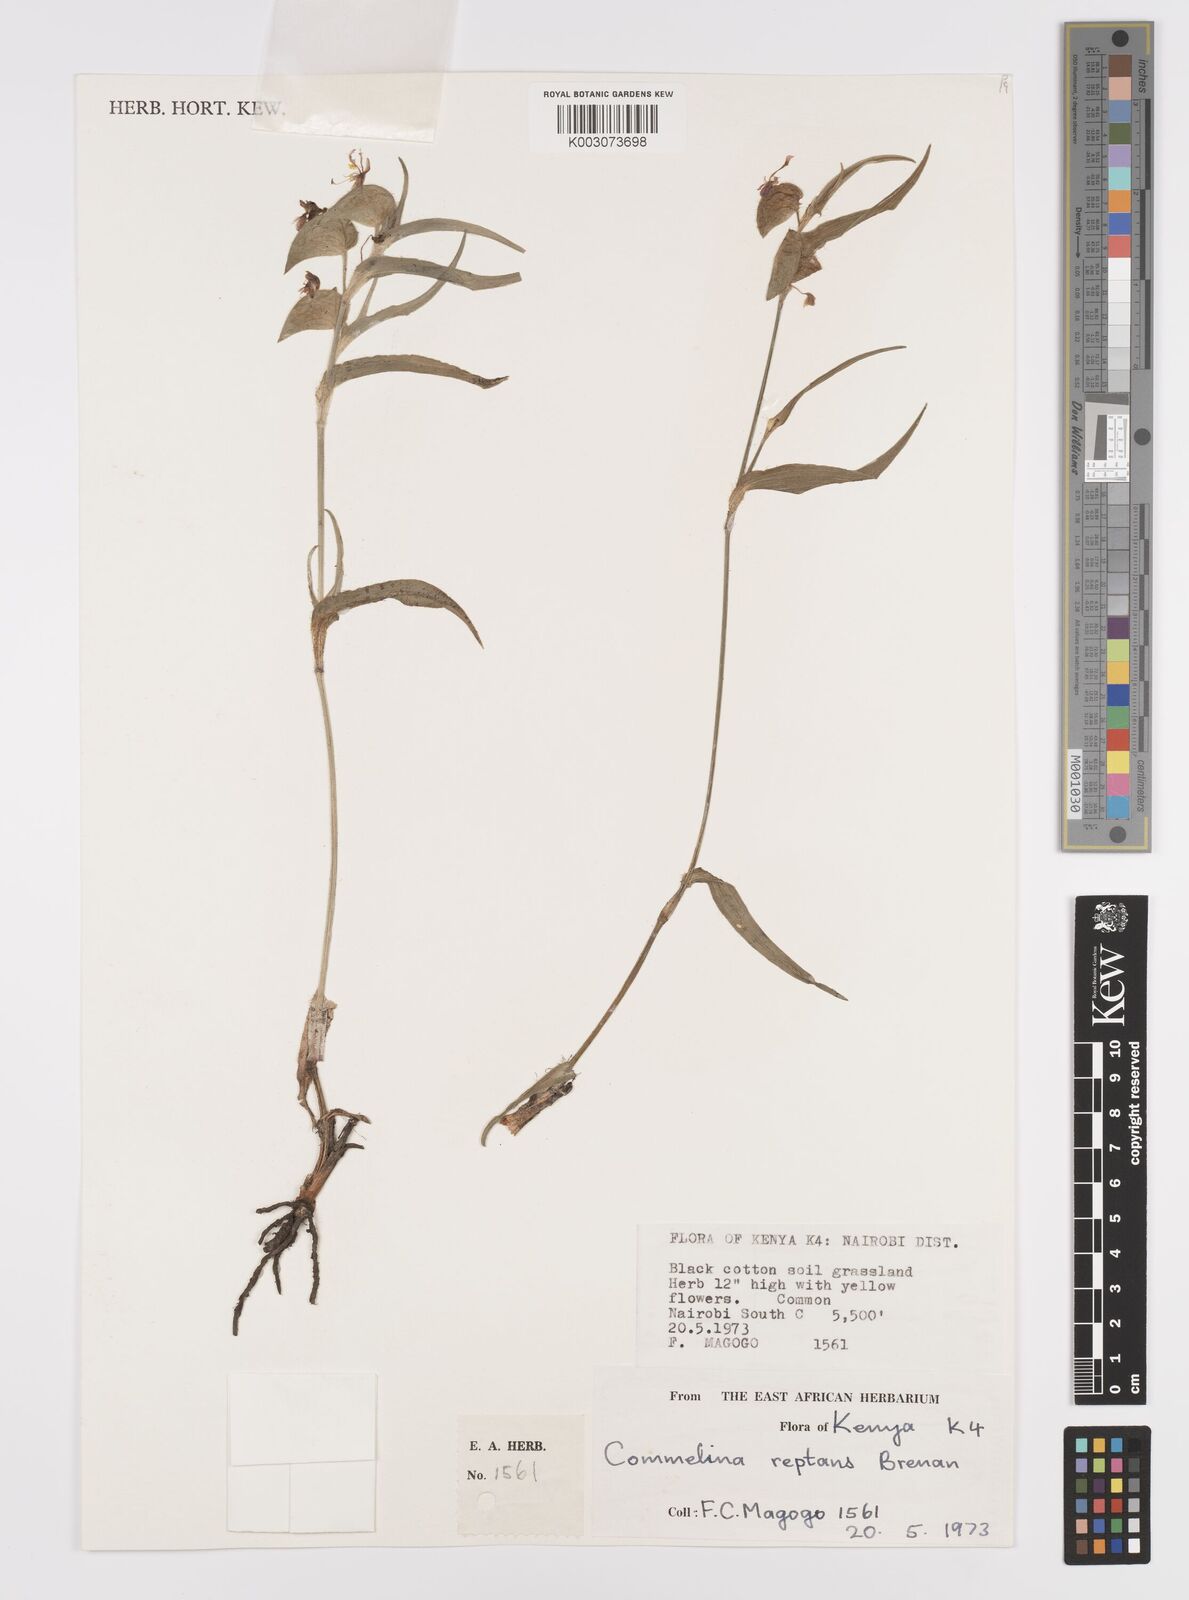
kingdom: Plantae
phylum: Tracheophyta
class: Liliopsida
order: Commelinales
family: Commelinaceae
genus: Commelina
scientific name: Commelina reptans
